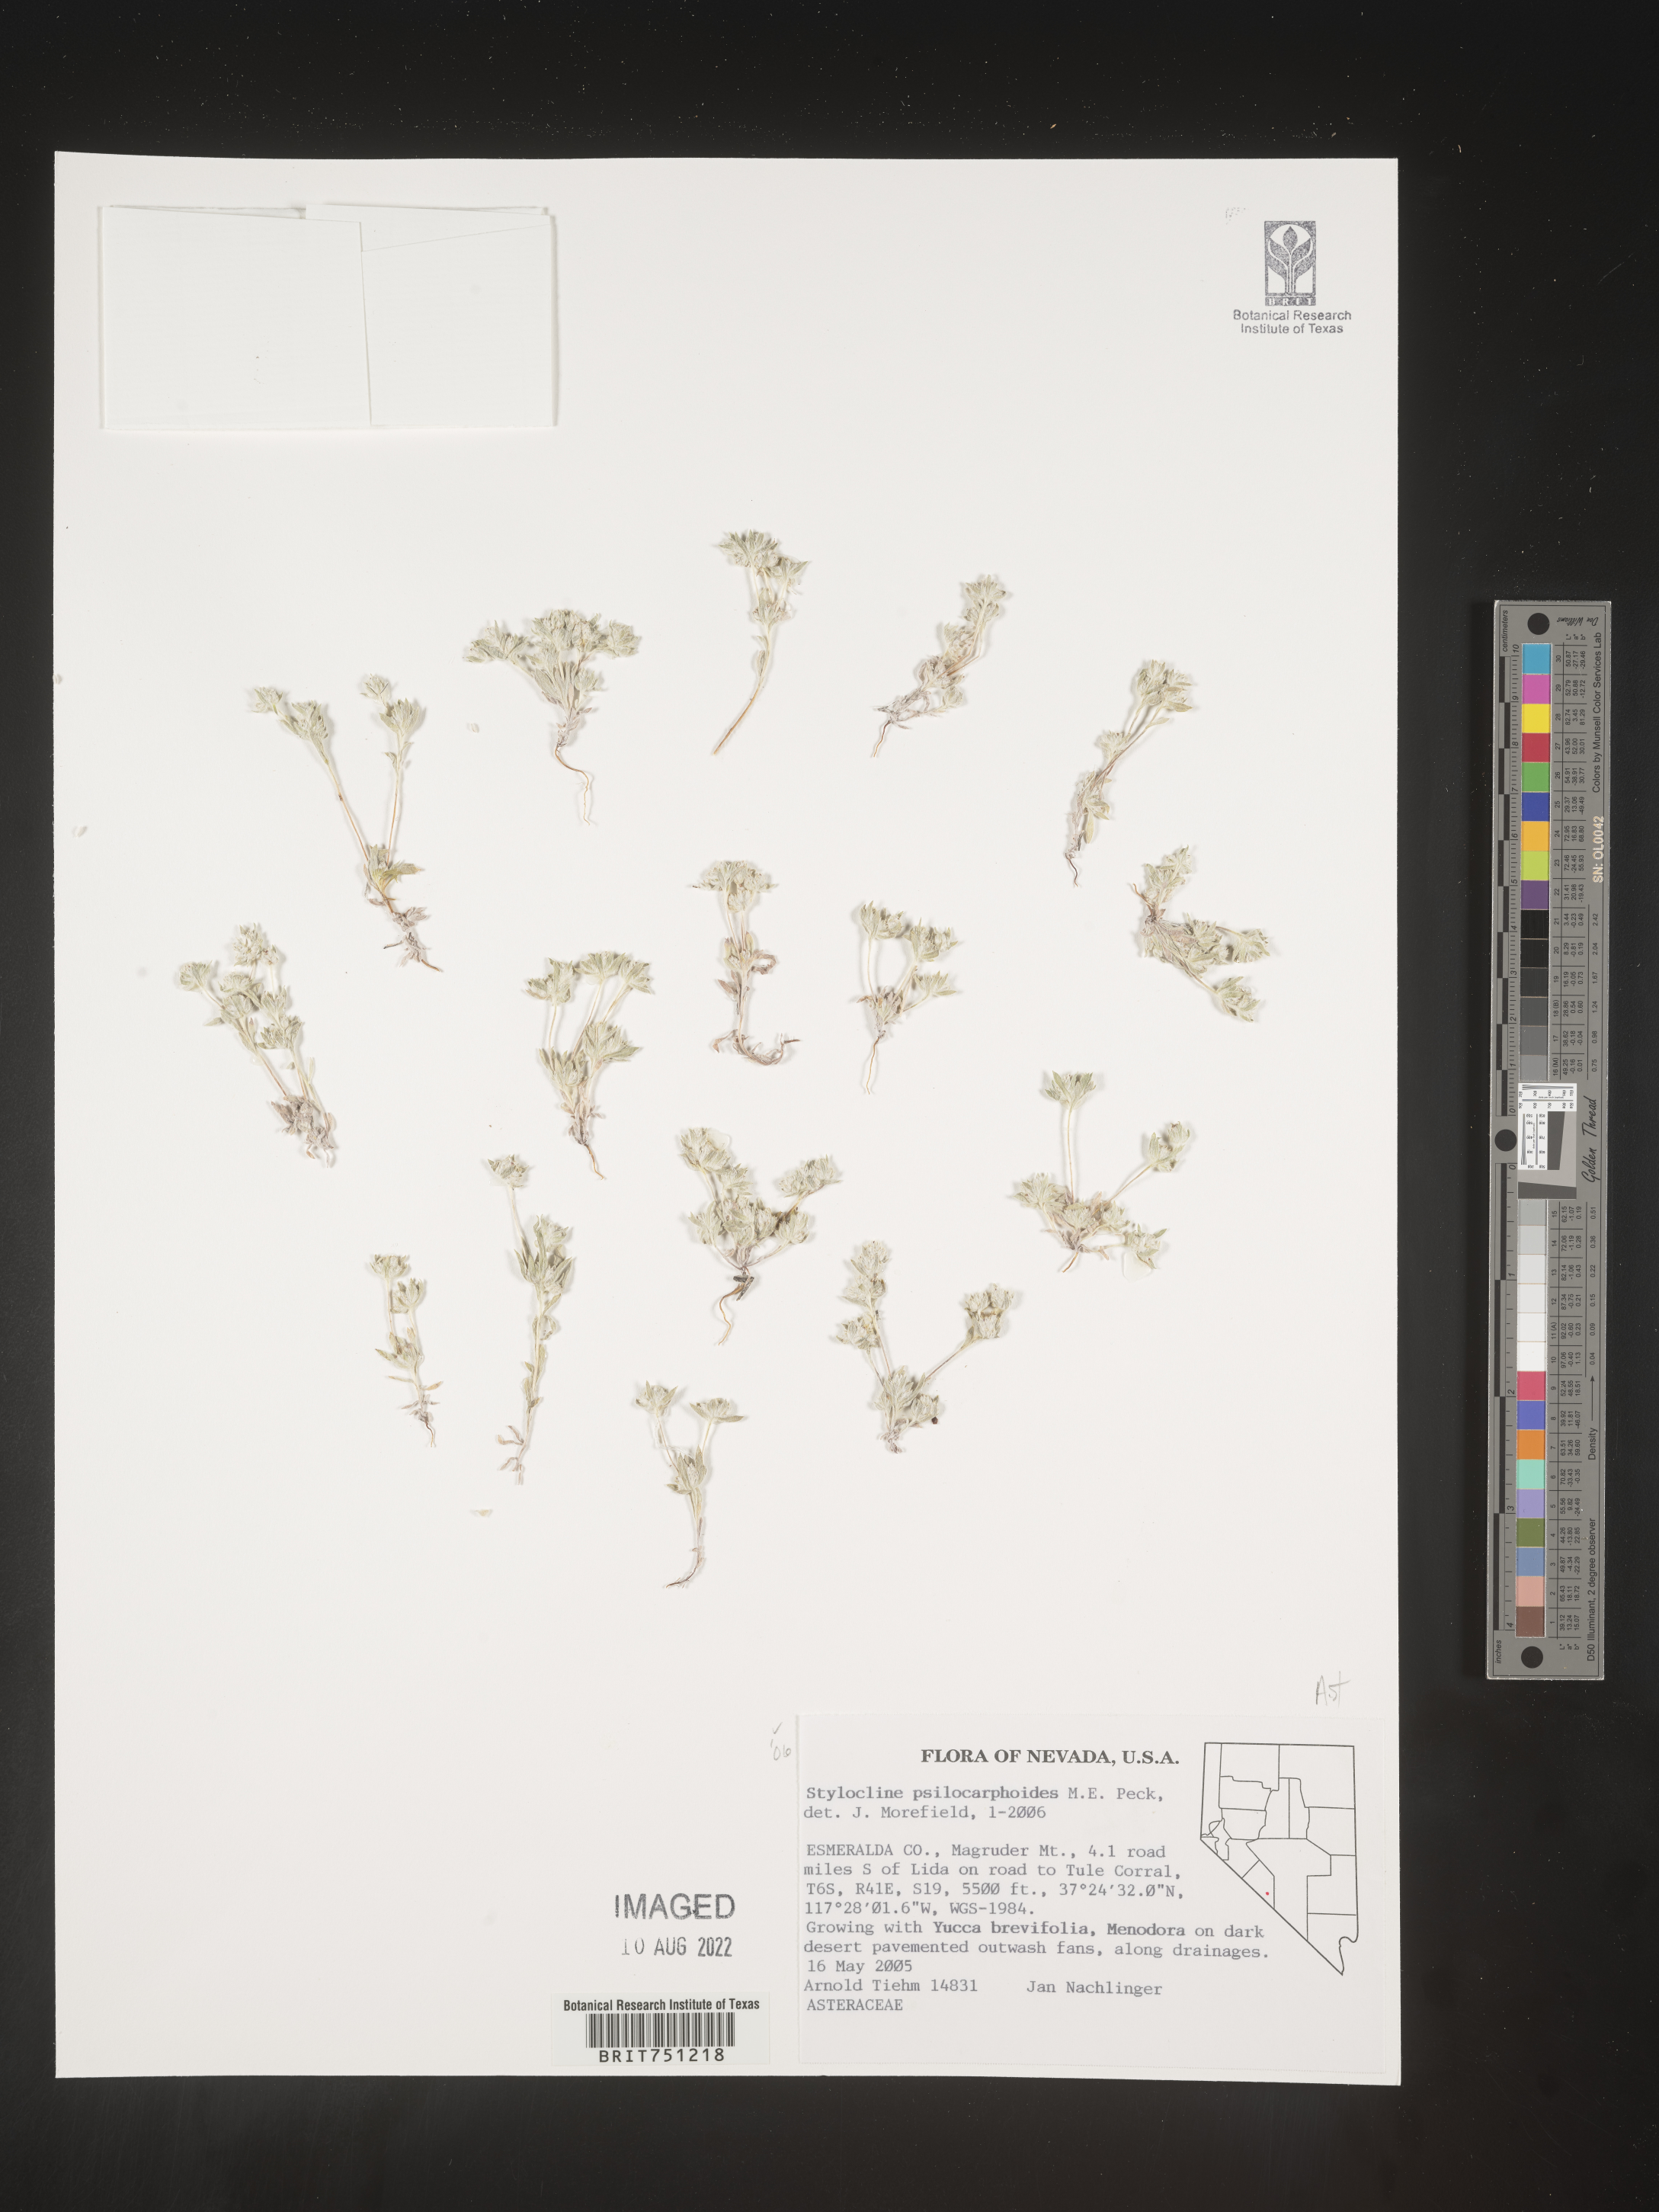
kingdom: Plantae
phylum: Tracheophyta
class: Magnoliopsida
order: Asterales
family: Asteraceae
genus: Stylocline
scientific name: Stylocline
